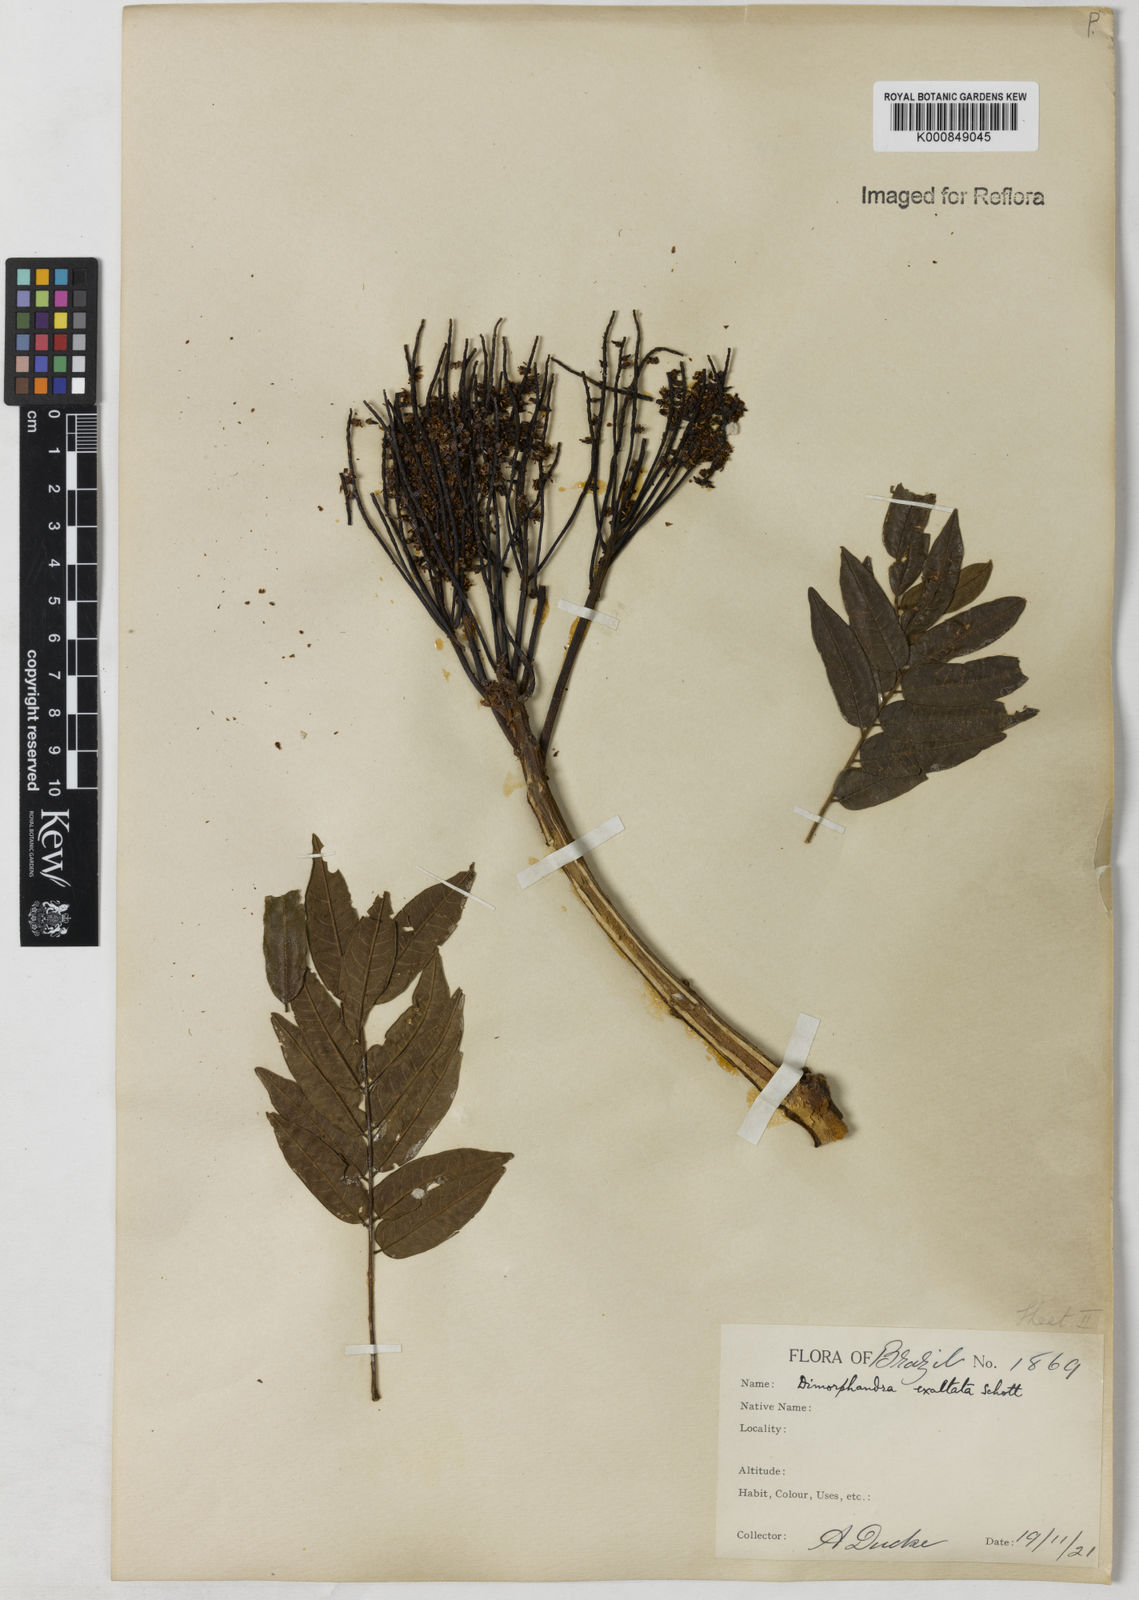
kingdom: Plantae
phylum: Tracheophyta
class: Magnoliopsida
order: Fabales
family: Fabaceae
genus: Dimorphandra
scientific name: Dimorphandra exaltata
